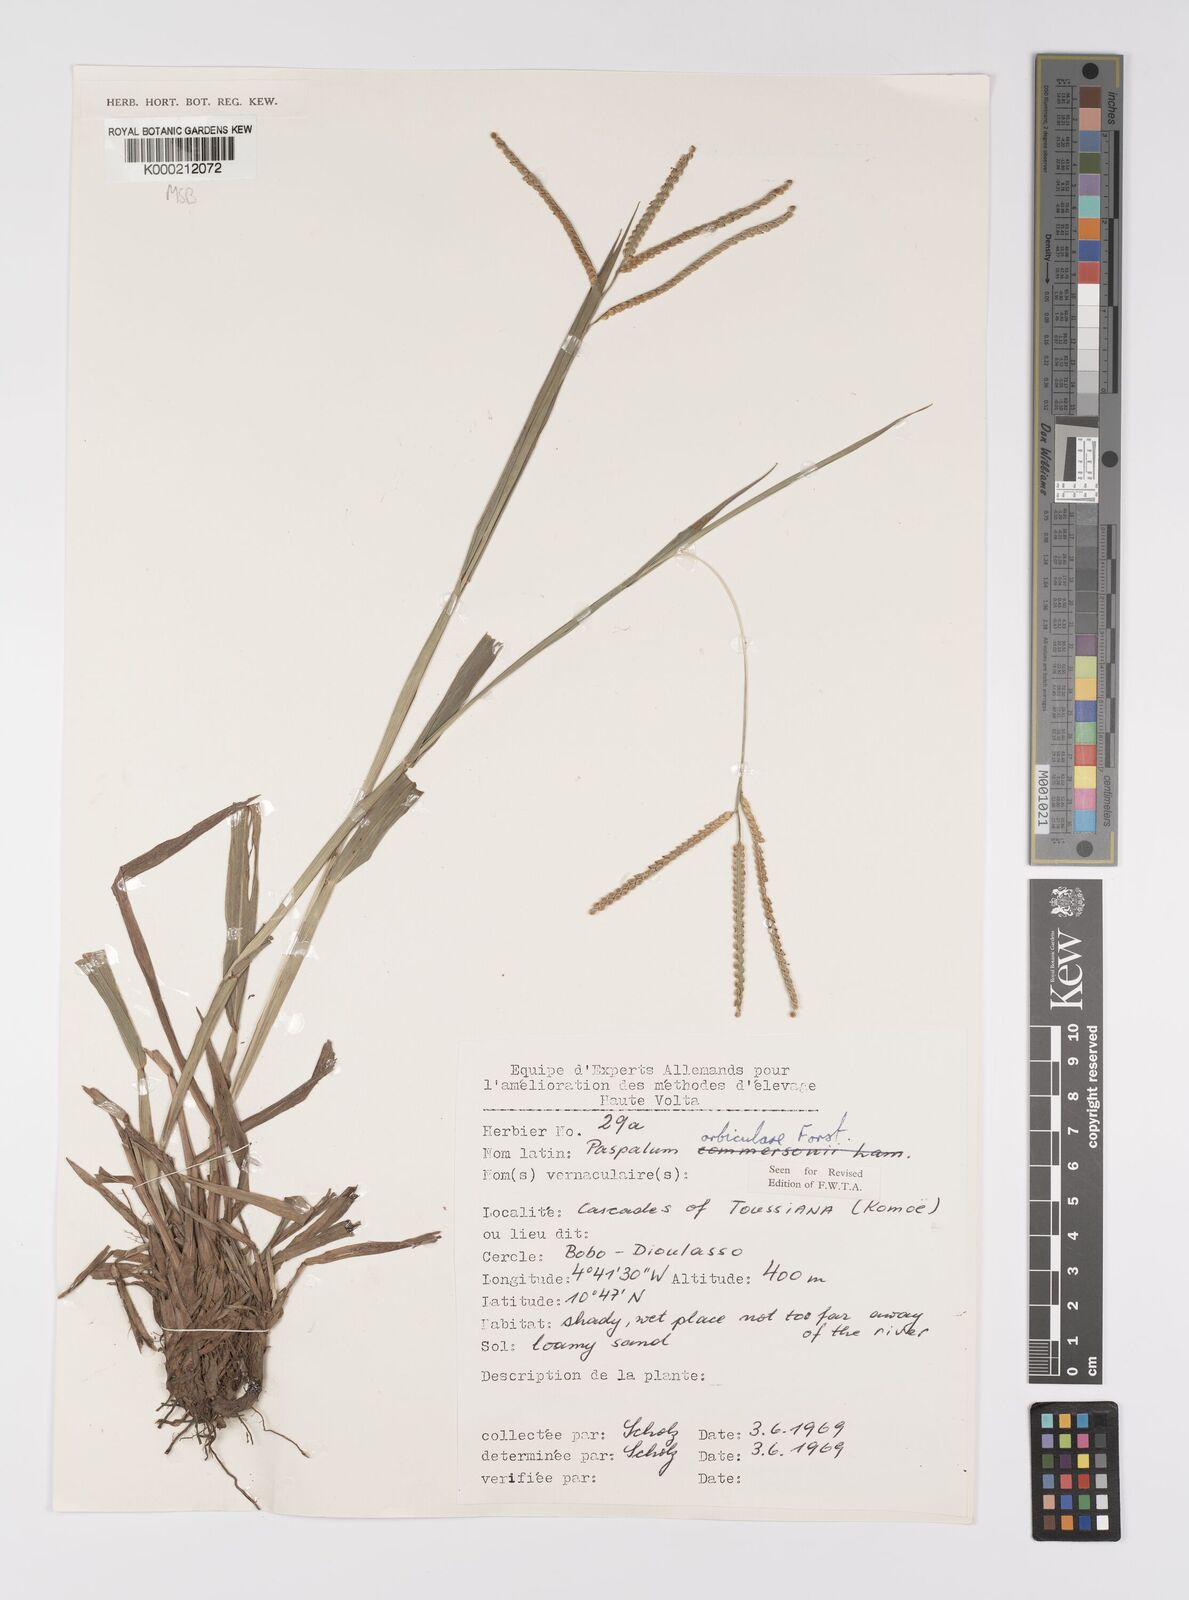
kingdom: Plantae
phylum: Tracheophyta
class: Liliopsida
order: Poales
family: Poaceae
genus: Paspalum
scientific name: Paspalum scrobiculatum
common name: Kodo millet
